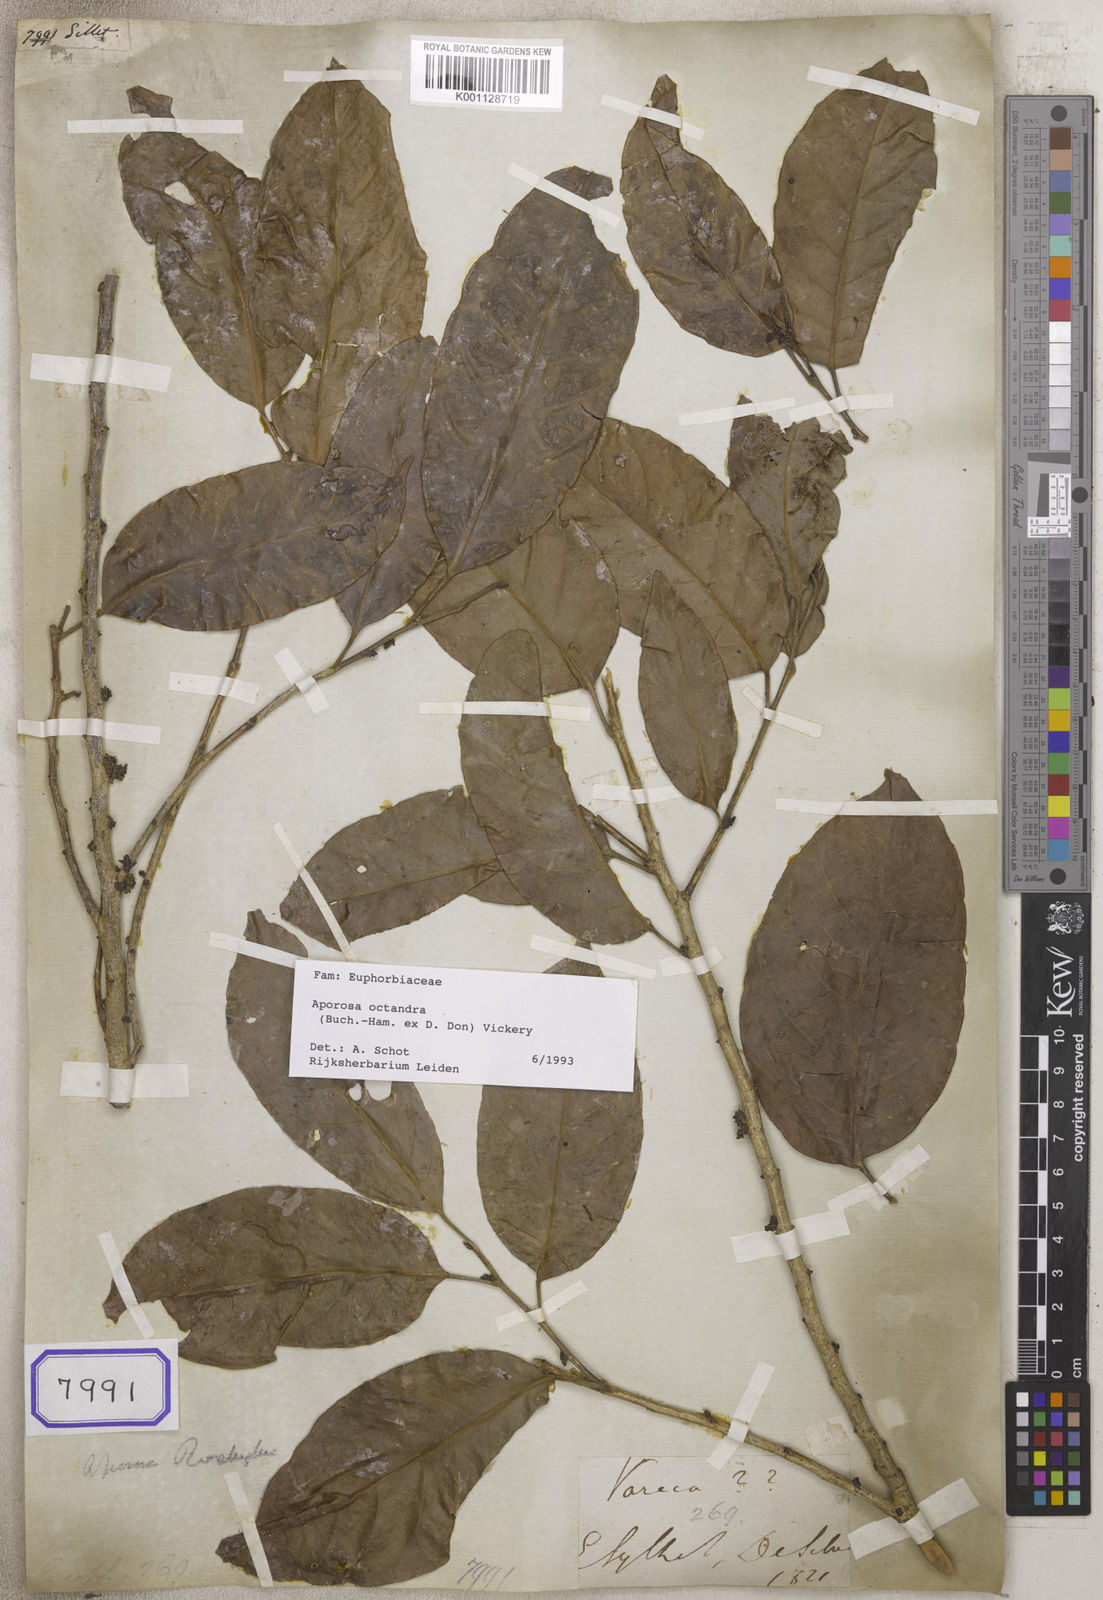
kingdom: Plantae
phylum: Tracheophyta
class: Magnoliopsida
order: Malpighiales
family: Euphorbiaceae
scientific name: Euphorbiaceae
